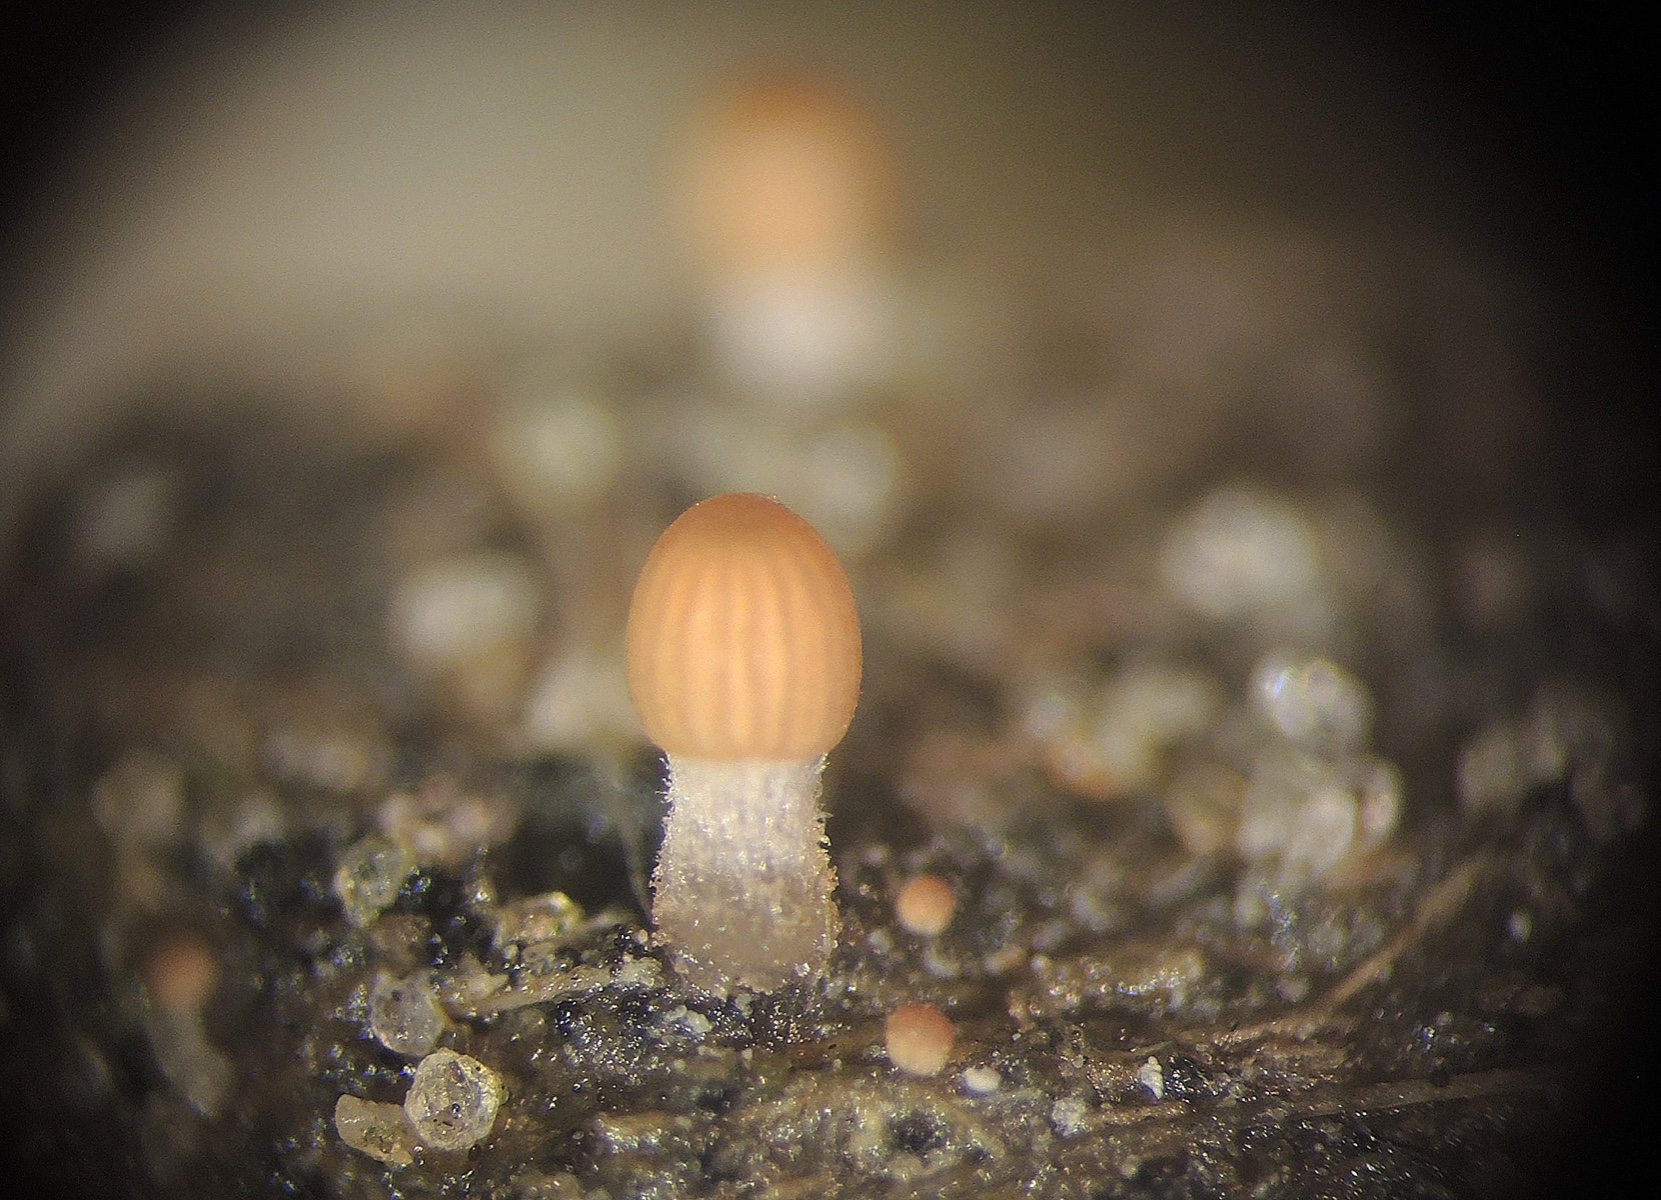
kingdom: Fungi
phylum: Basidiomycota
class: Agaricomycetes
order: Agaricales
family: Psathyrellaceae
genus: Parasola
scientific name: Parasola cuniculorum
